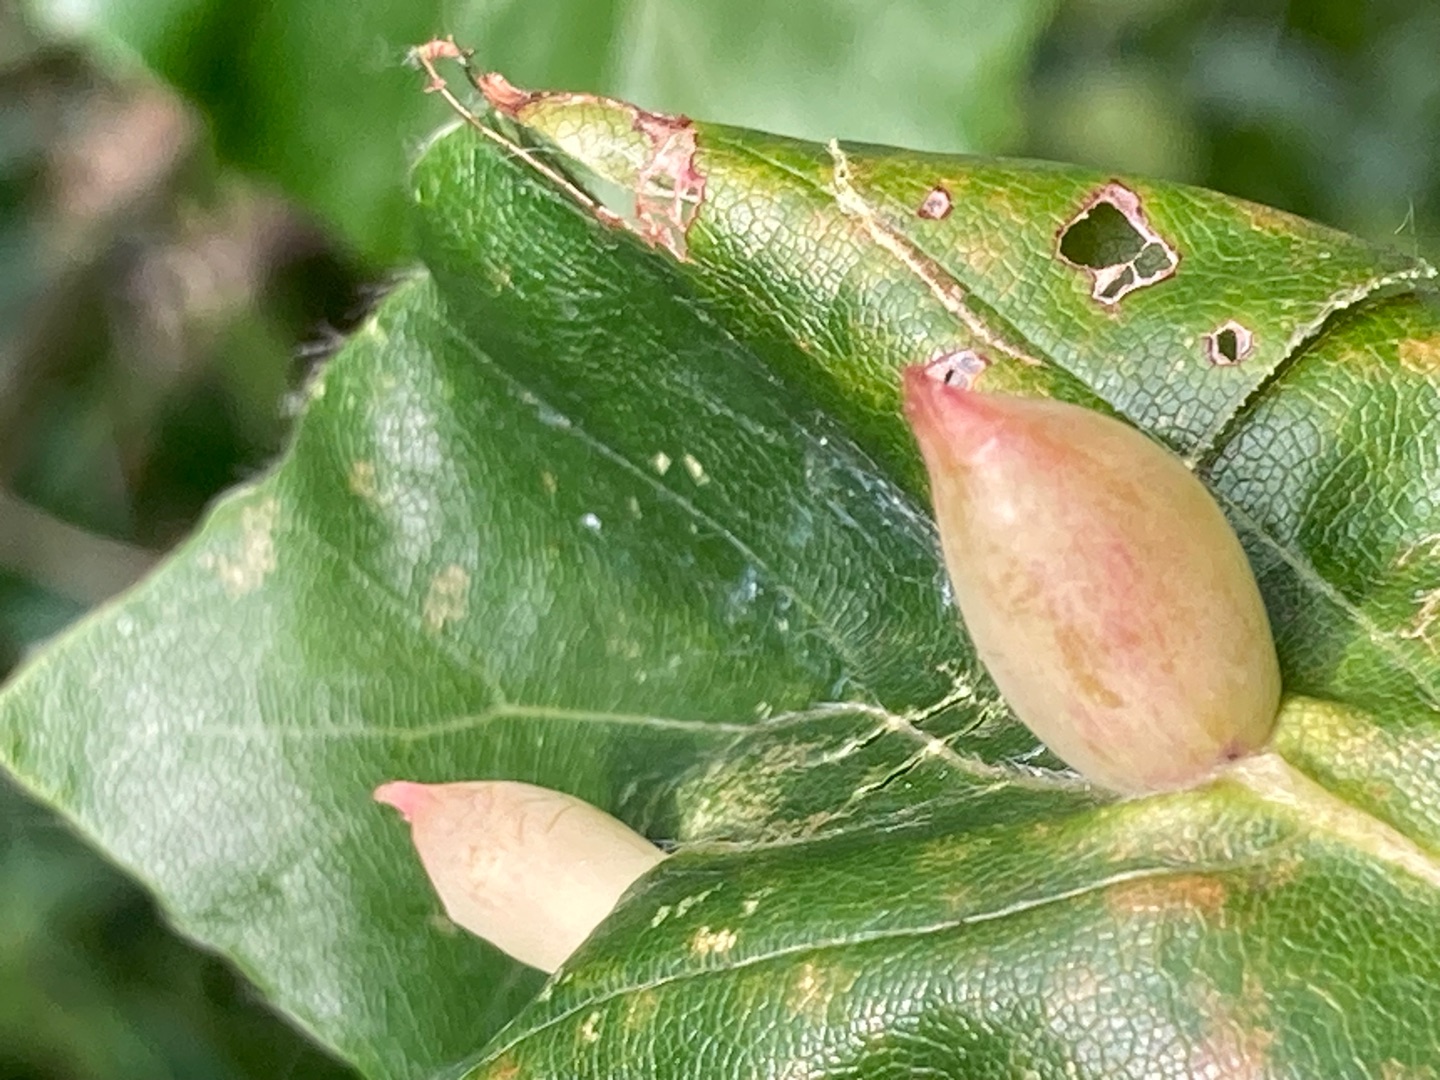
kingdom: Animalia
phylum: Arthropoda
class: Insecta
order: Diptera
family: Cecidomyiidae
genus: Mikiola
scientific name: Mikiola fagi
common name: Bøgegalmyg
